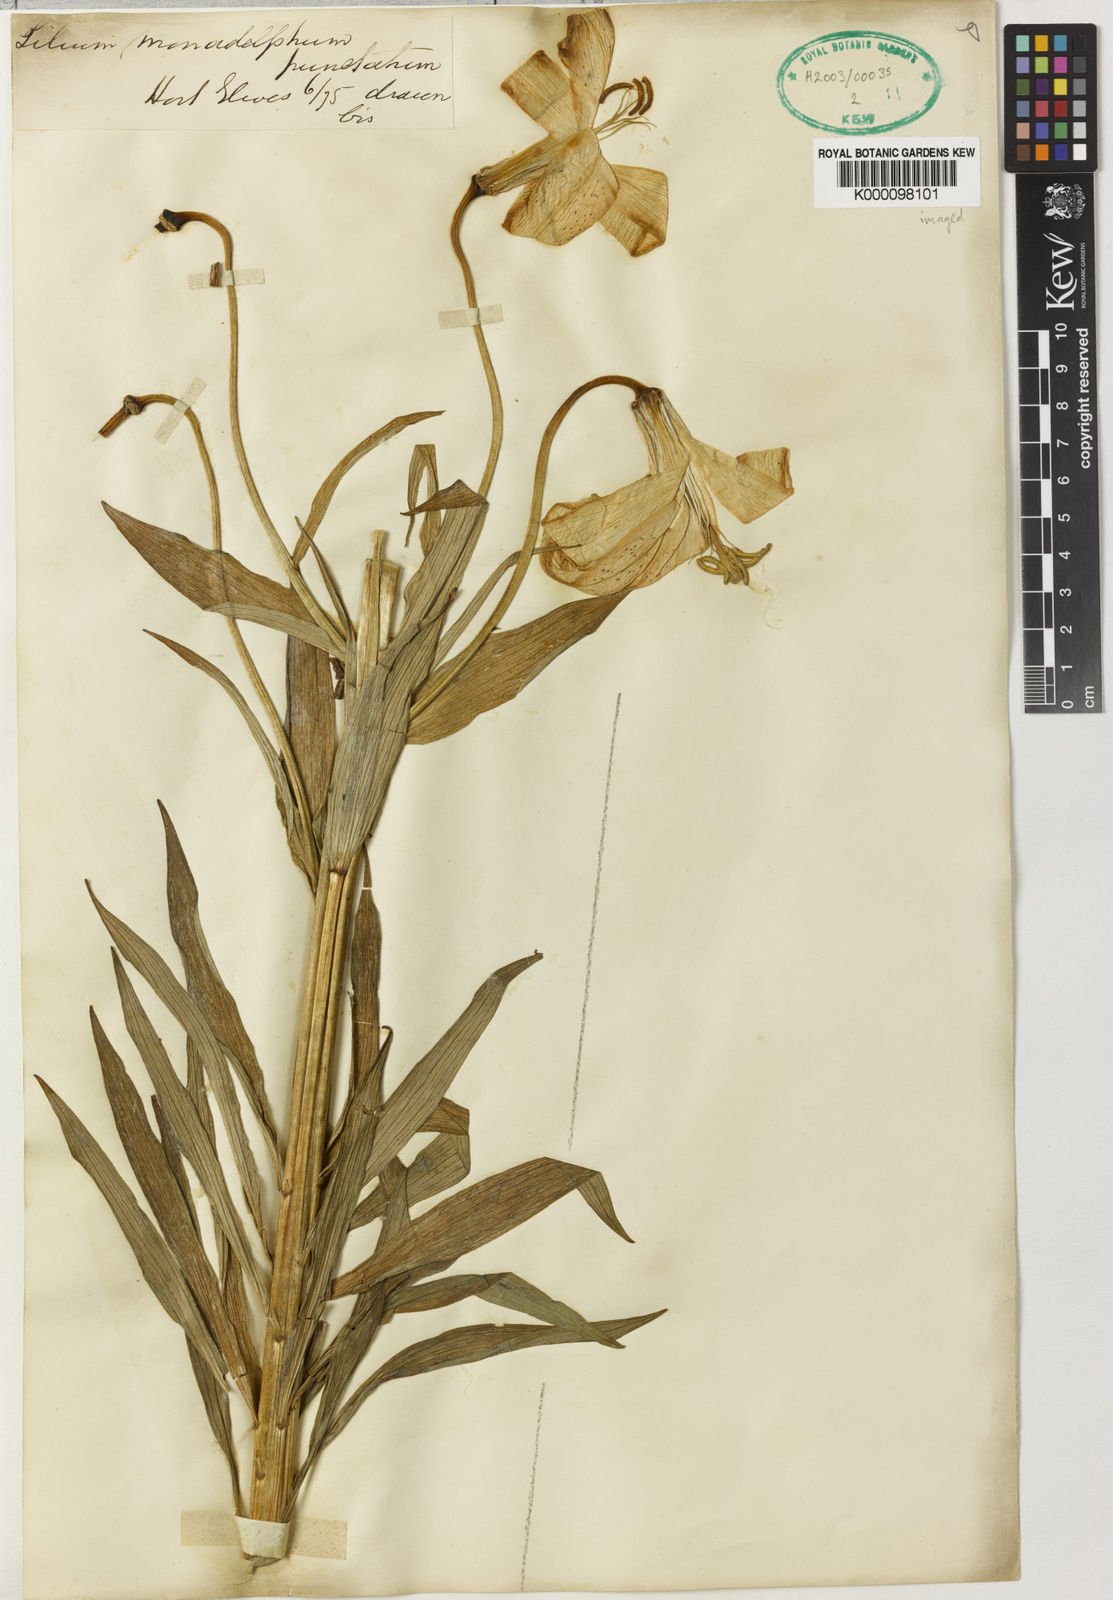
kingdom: Plantae
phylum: Tracheophyta
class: Liliopsida
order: Liliales
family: Liliaceae
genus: Lilium
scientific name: Lilium monadelphum
